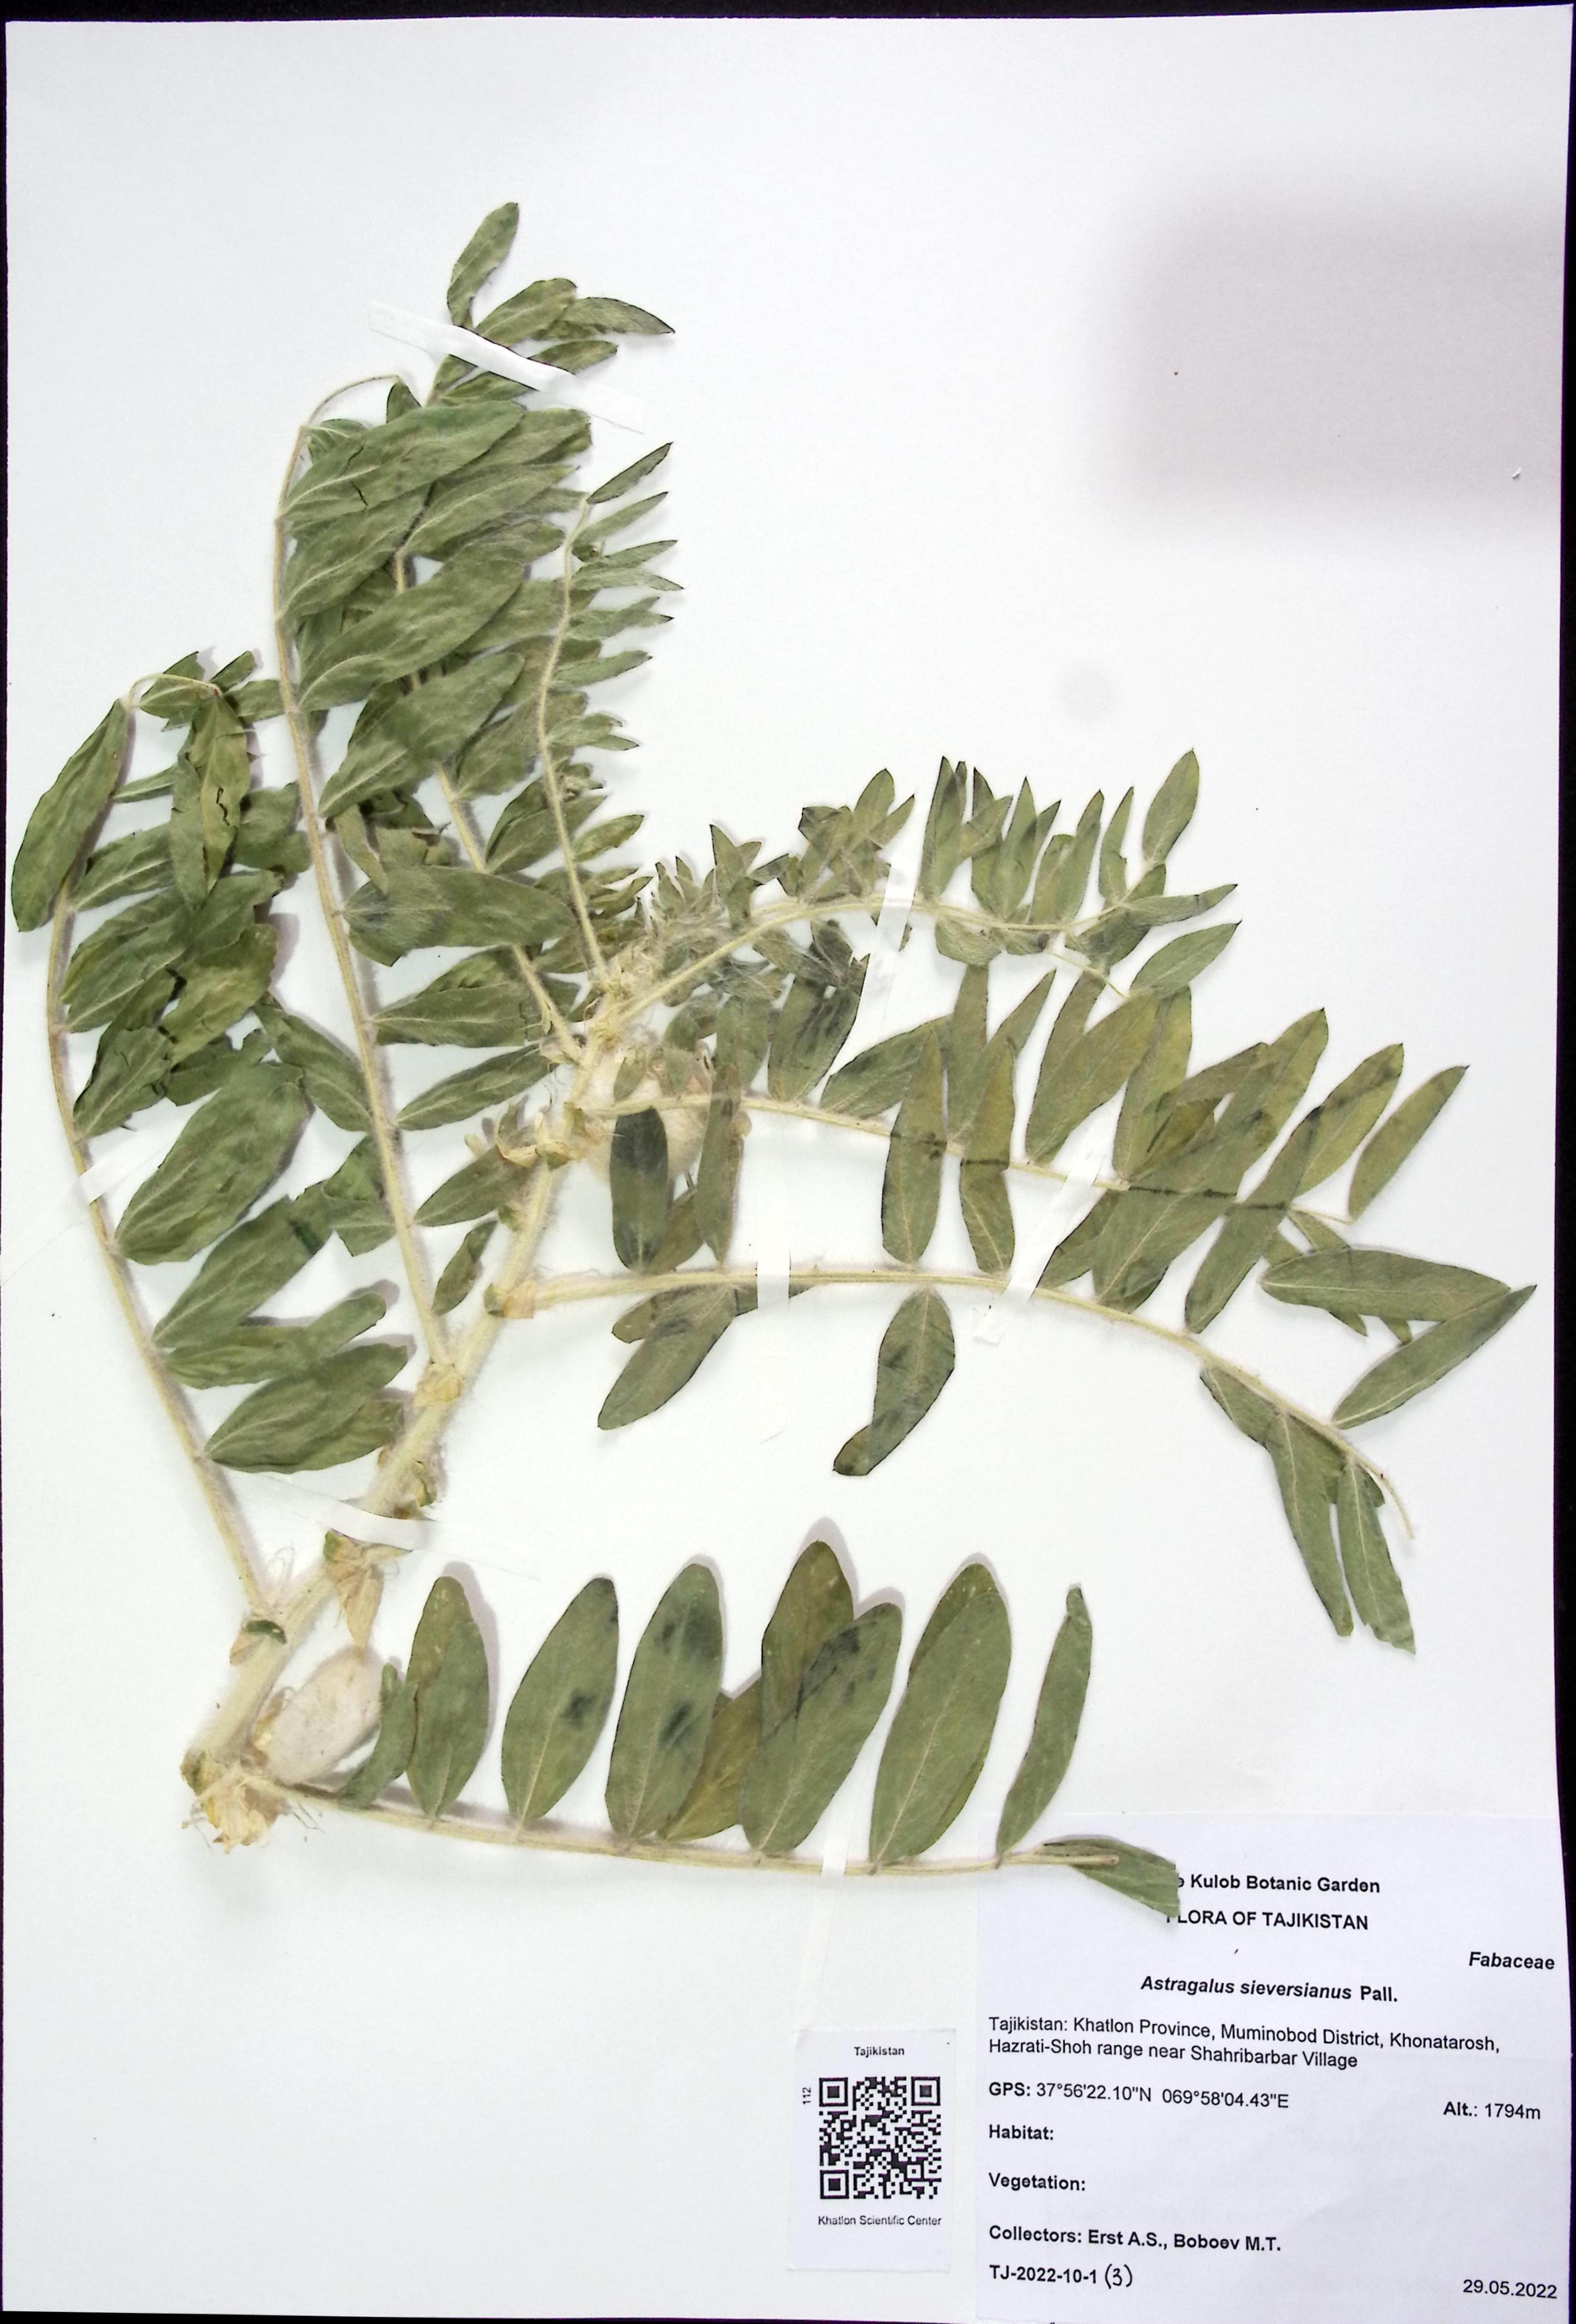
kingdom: Plantae
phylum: Tracheophyta
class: Magnoliopsida
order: Fabales
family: Fabaceae
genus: Astragalus
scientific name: Astragalus sieversianus
